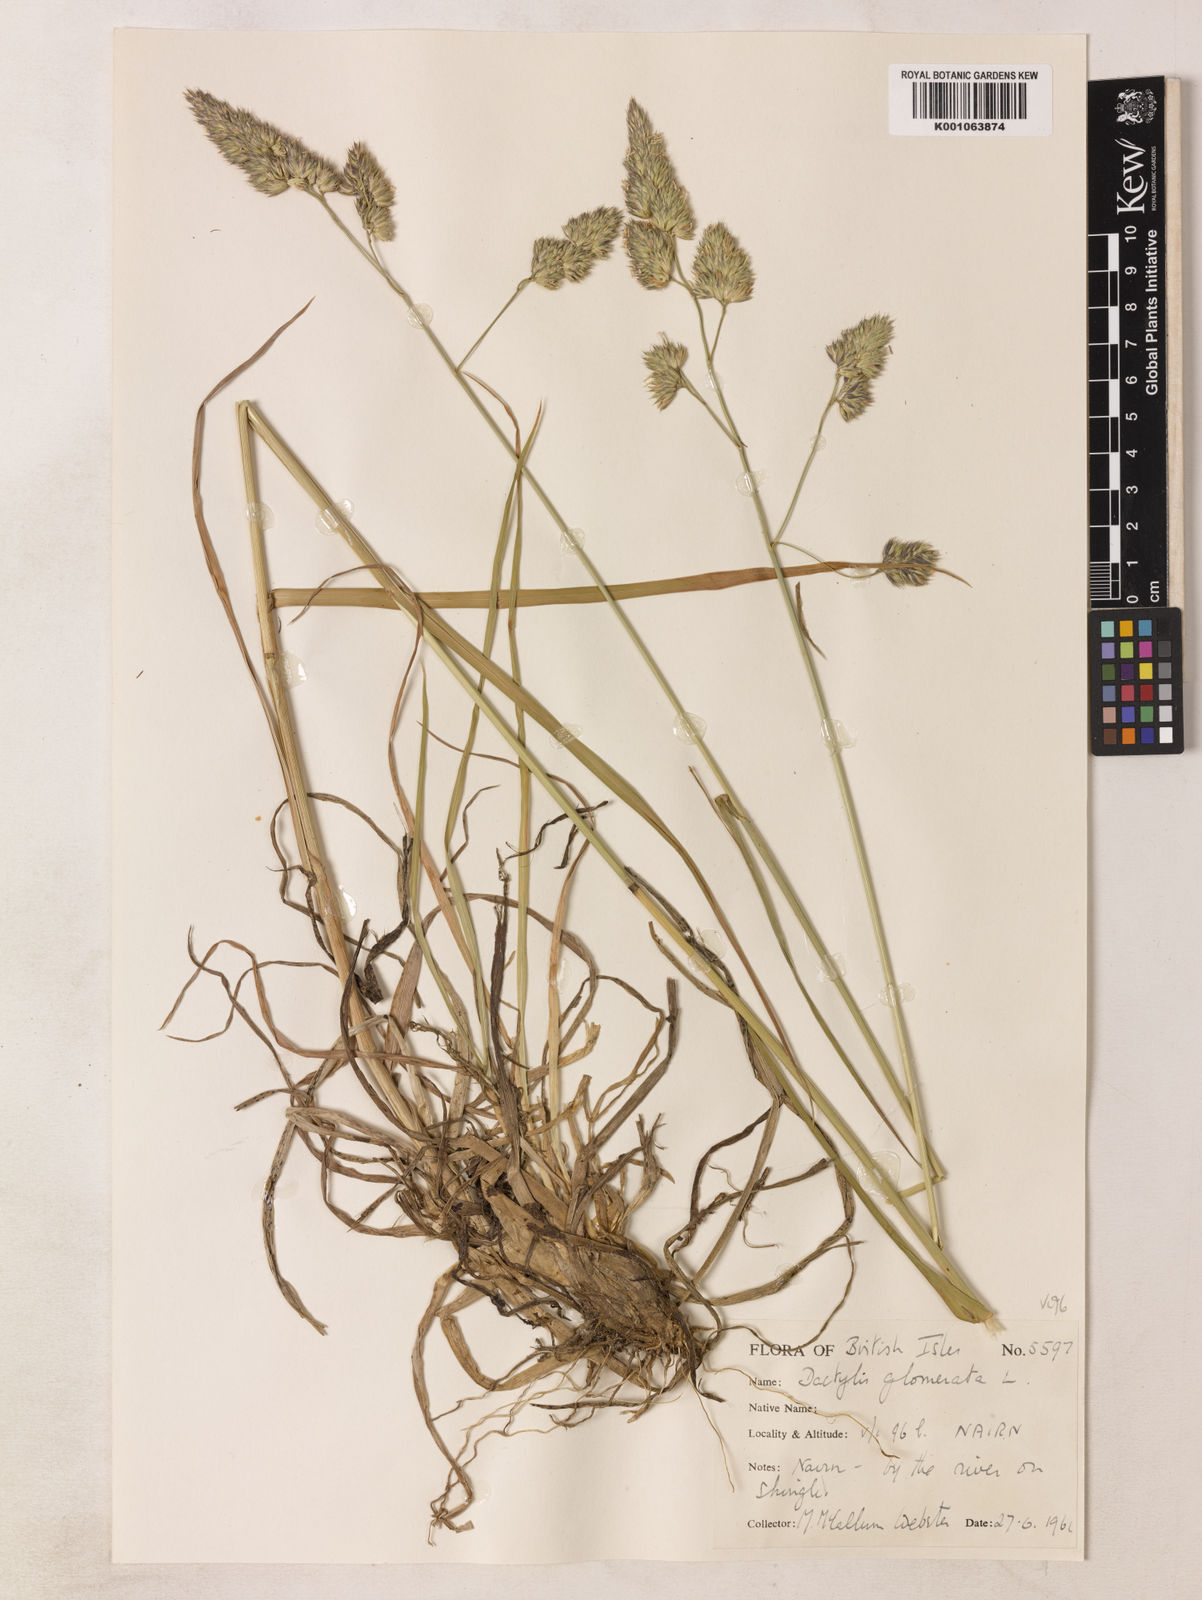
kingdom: Plantae
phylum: Tracheophyta
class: Liliopsida
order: Poales
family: Poaceae
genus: Dactylis
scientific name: Dactylis glomerata
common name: Orchardgrass
